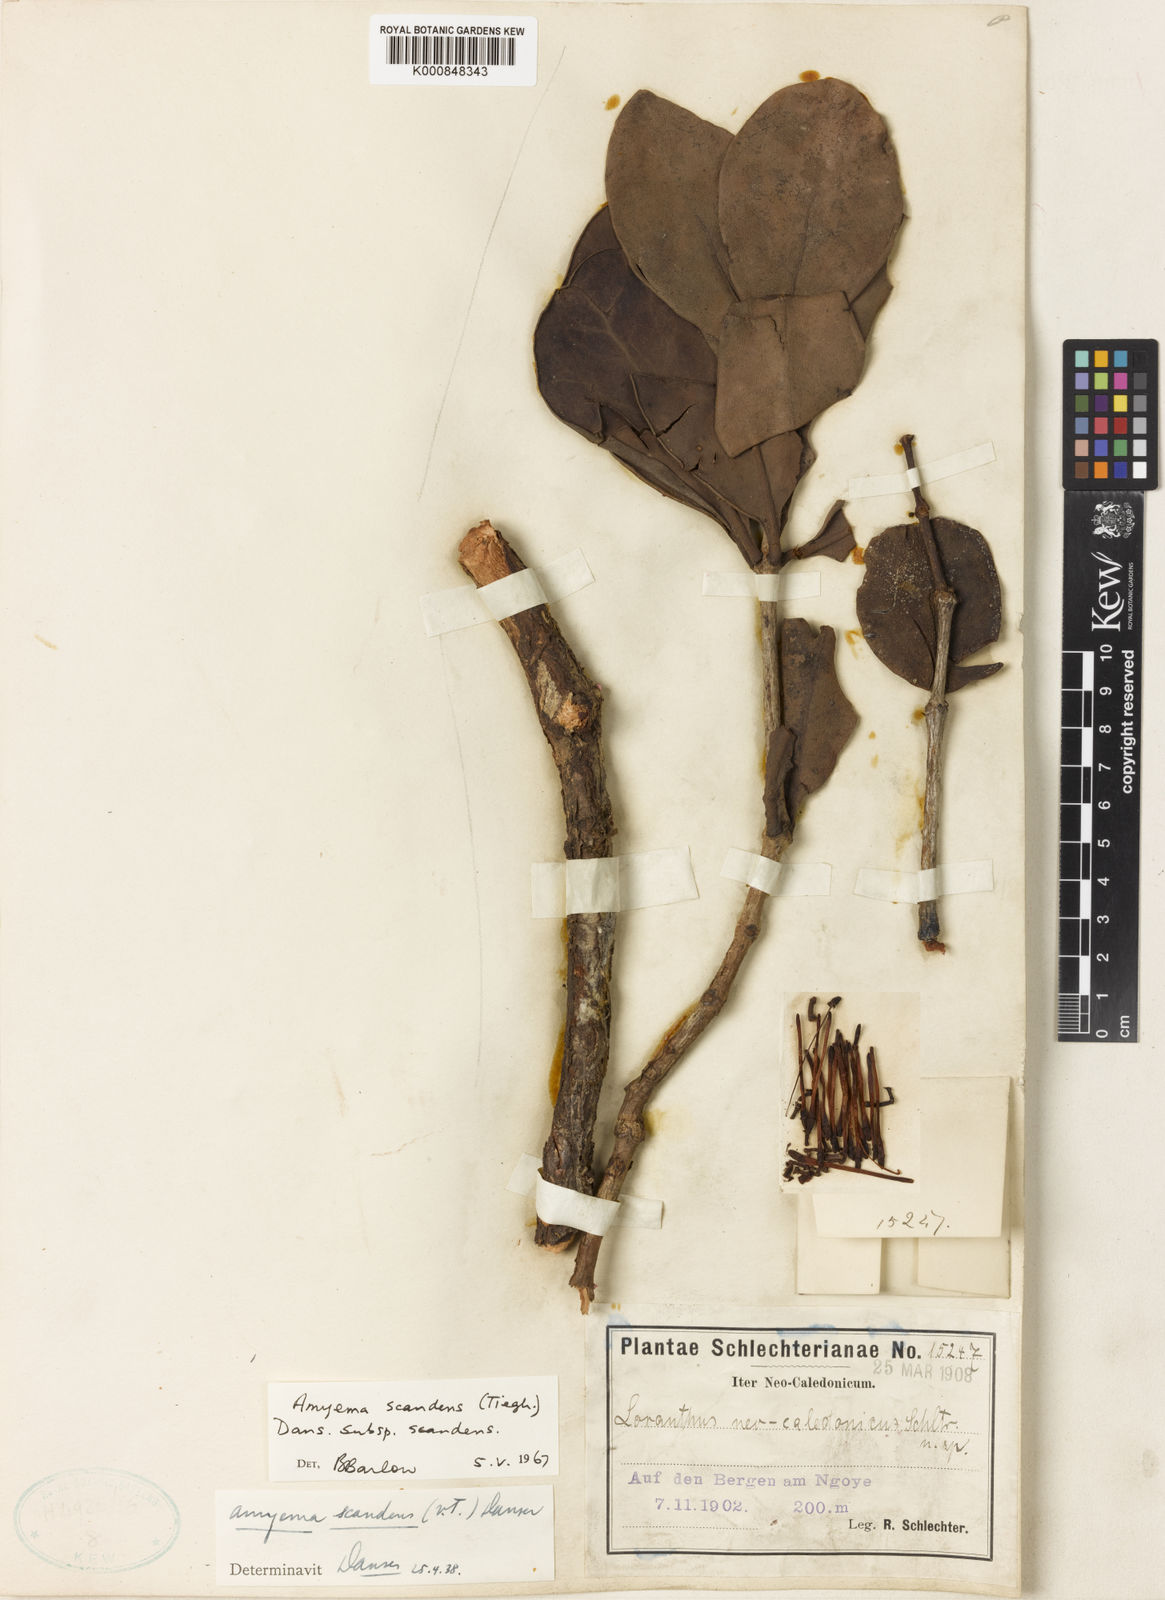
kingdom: Plantae
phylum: Tracheophyta
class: Magnoliopsida
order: Santalales
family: Loranthaceae
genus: Amyema
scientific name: Amyema scandens
